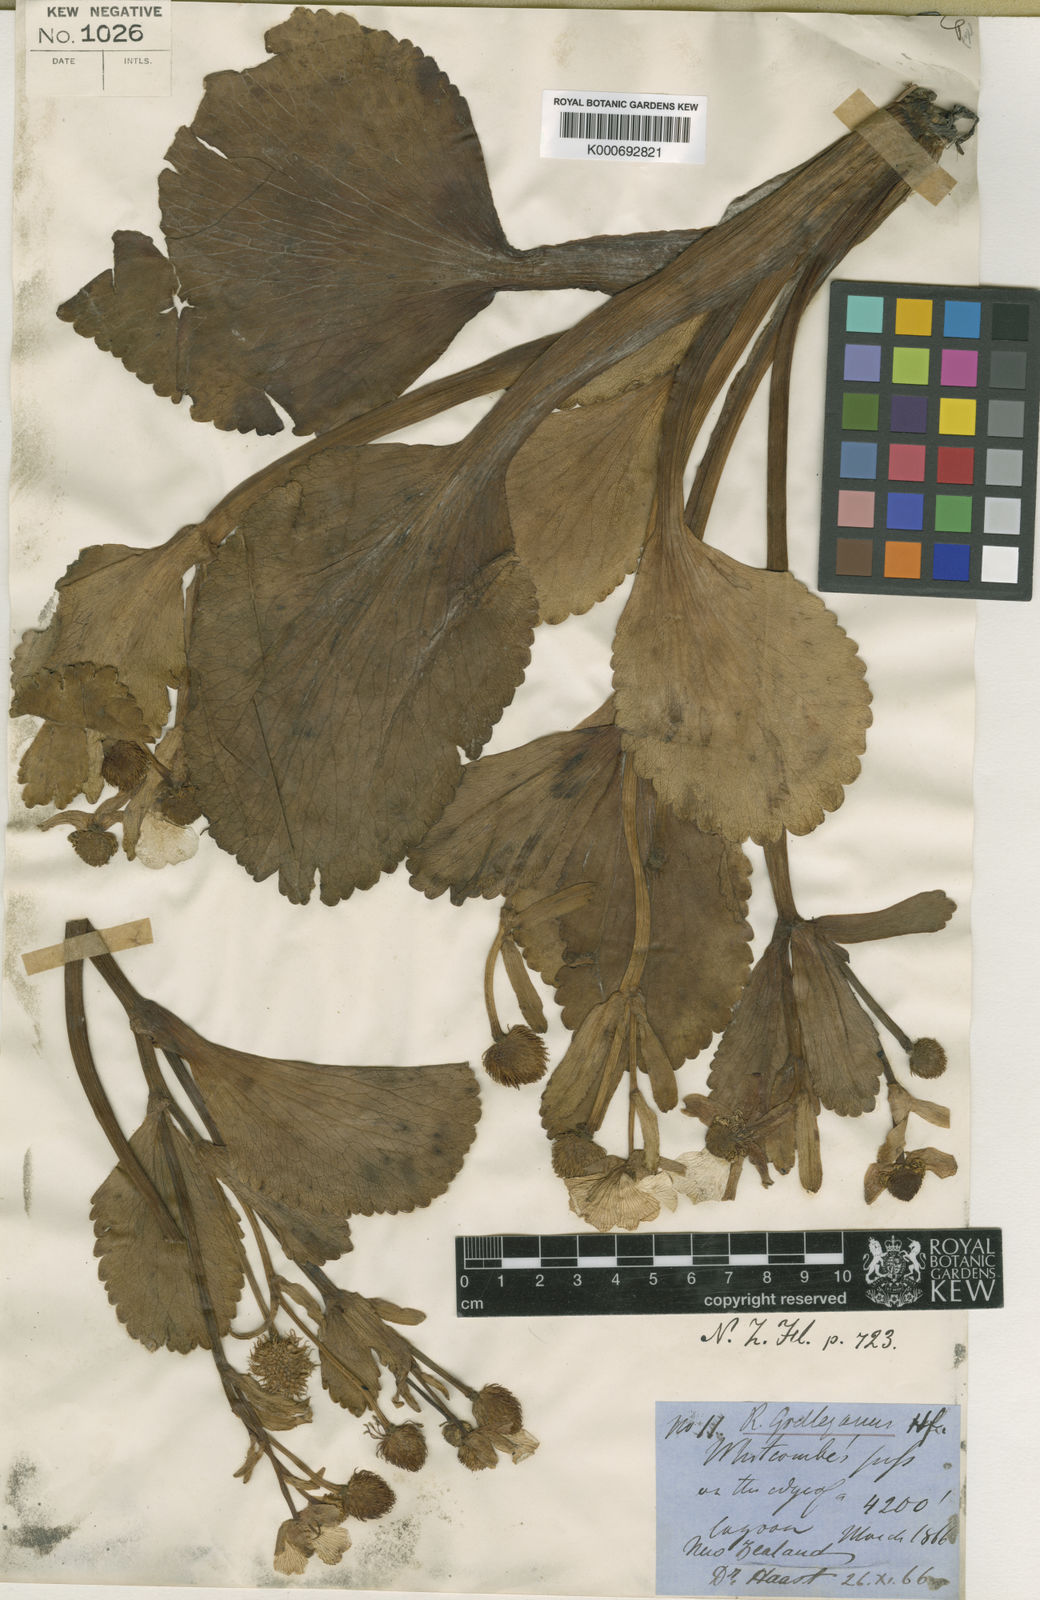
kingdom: Plantae
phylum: Tracheophyta
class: Magnoliopsida
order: Ranunculales
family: Ranunculaceae
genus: Ranunculus
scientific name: Ranunculus godleyanus
